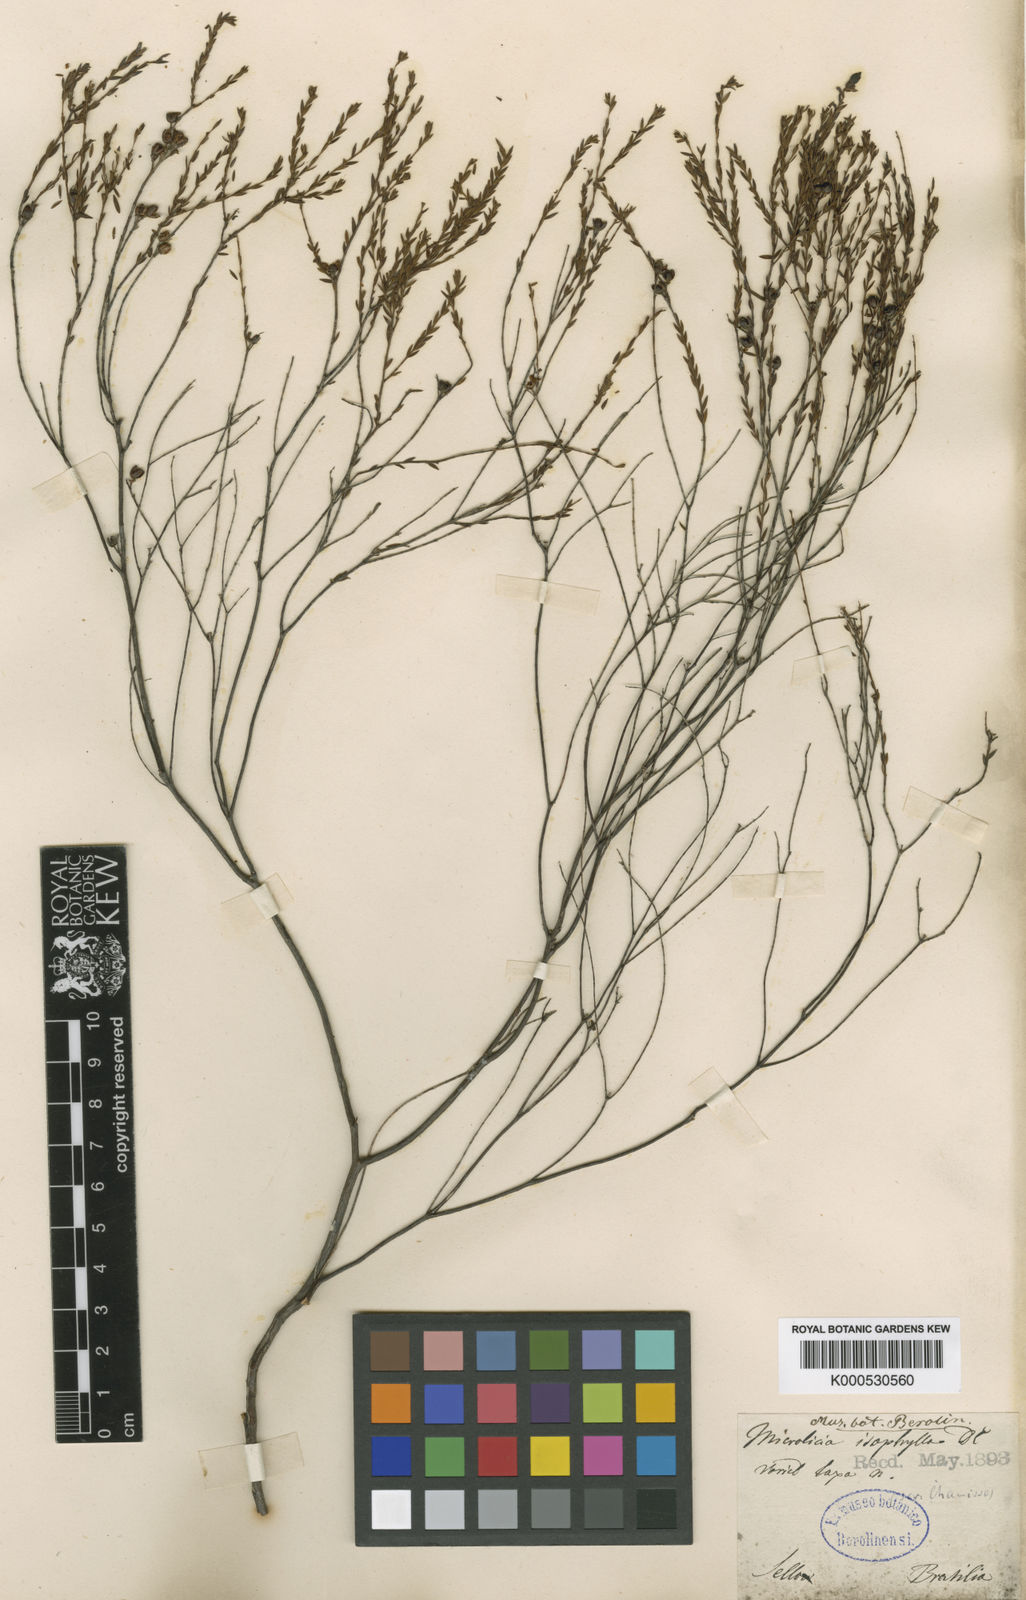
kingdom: Plantae
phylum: Tracheophyta
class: Magnoliopsida
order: Myrtales
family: Melastomataceae
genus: Microlicia
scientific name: Microlicia isophylla
